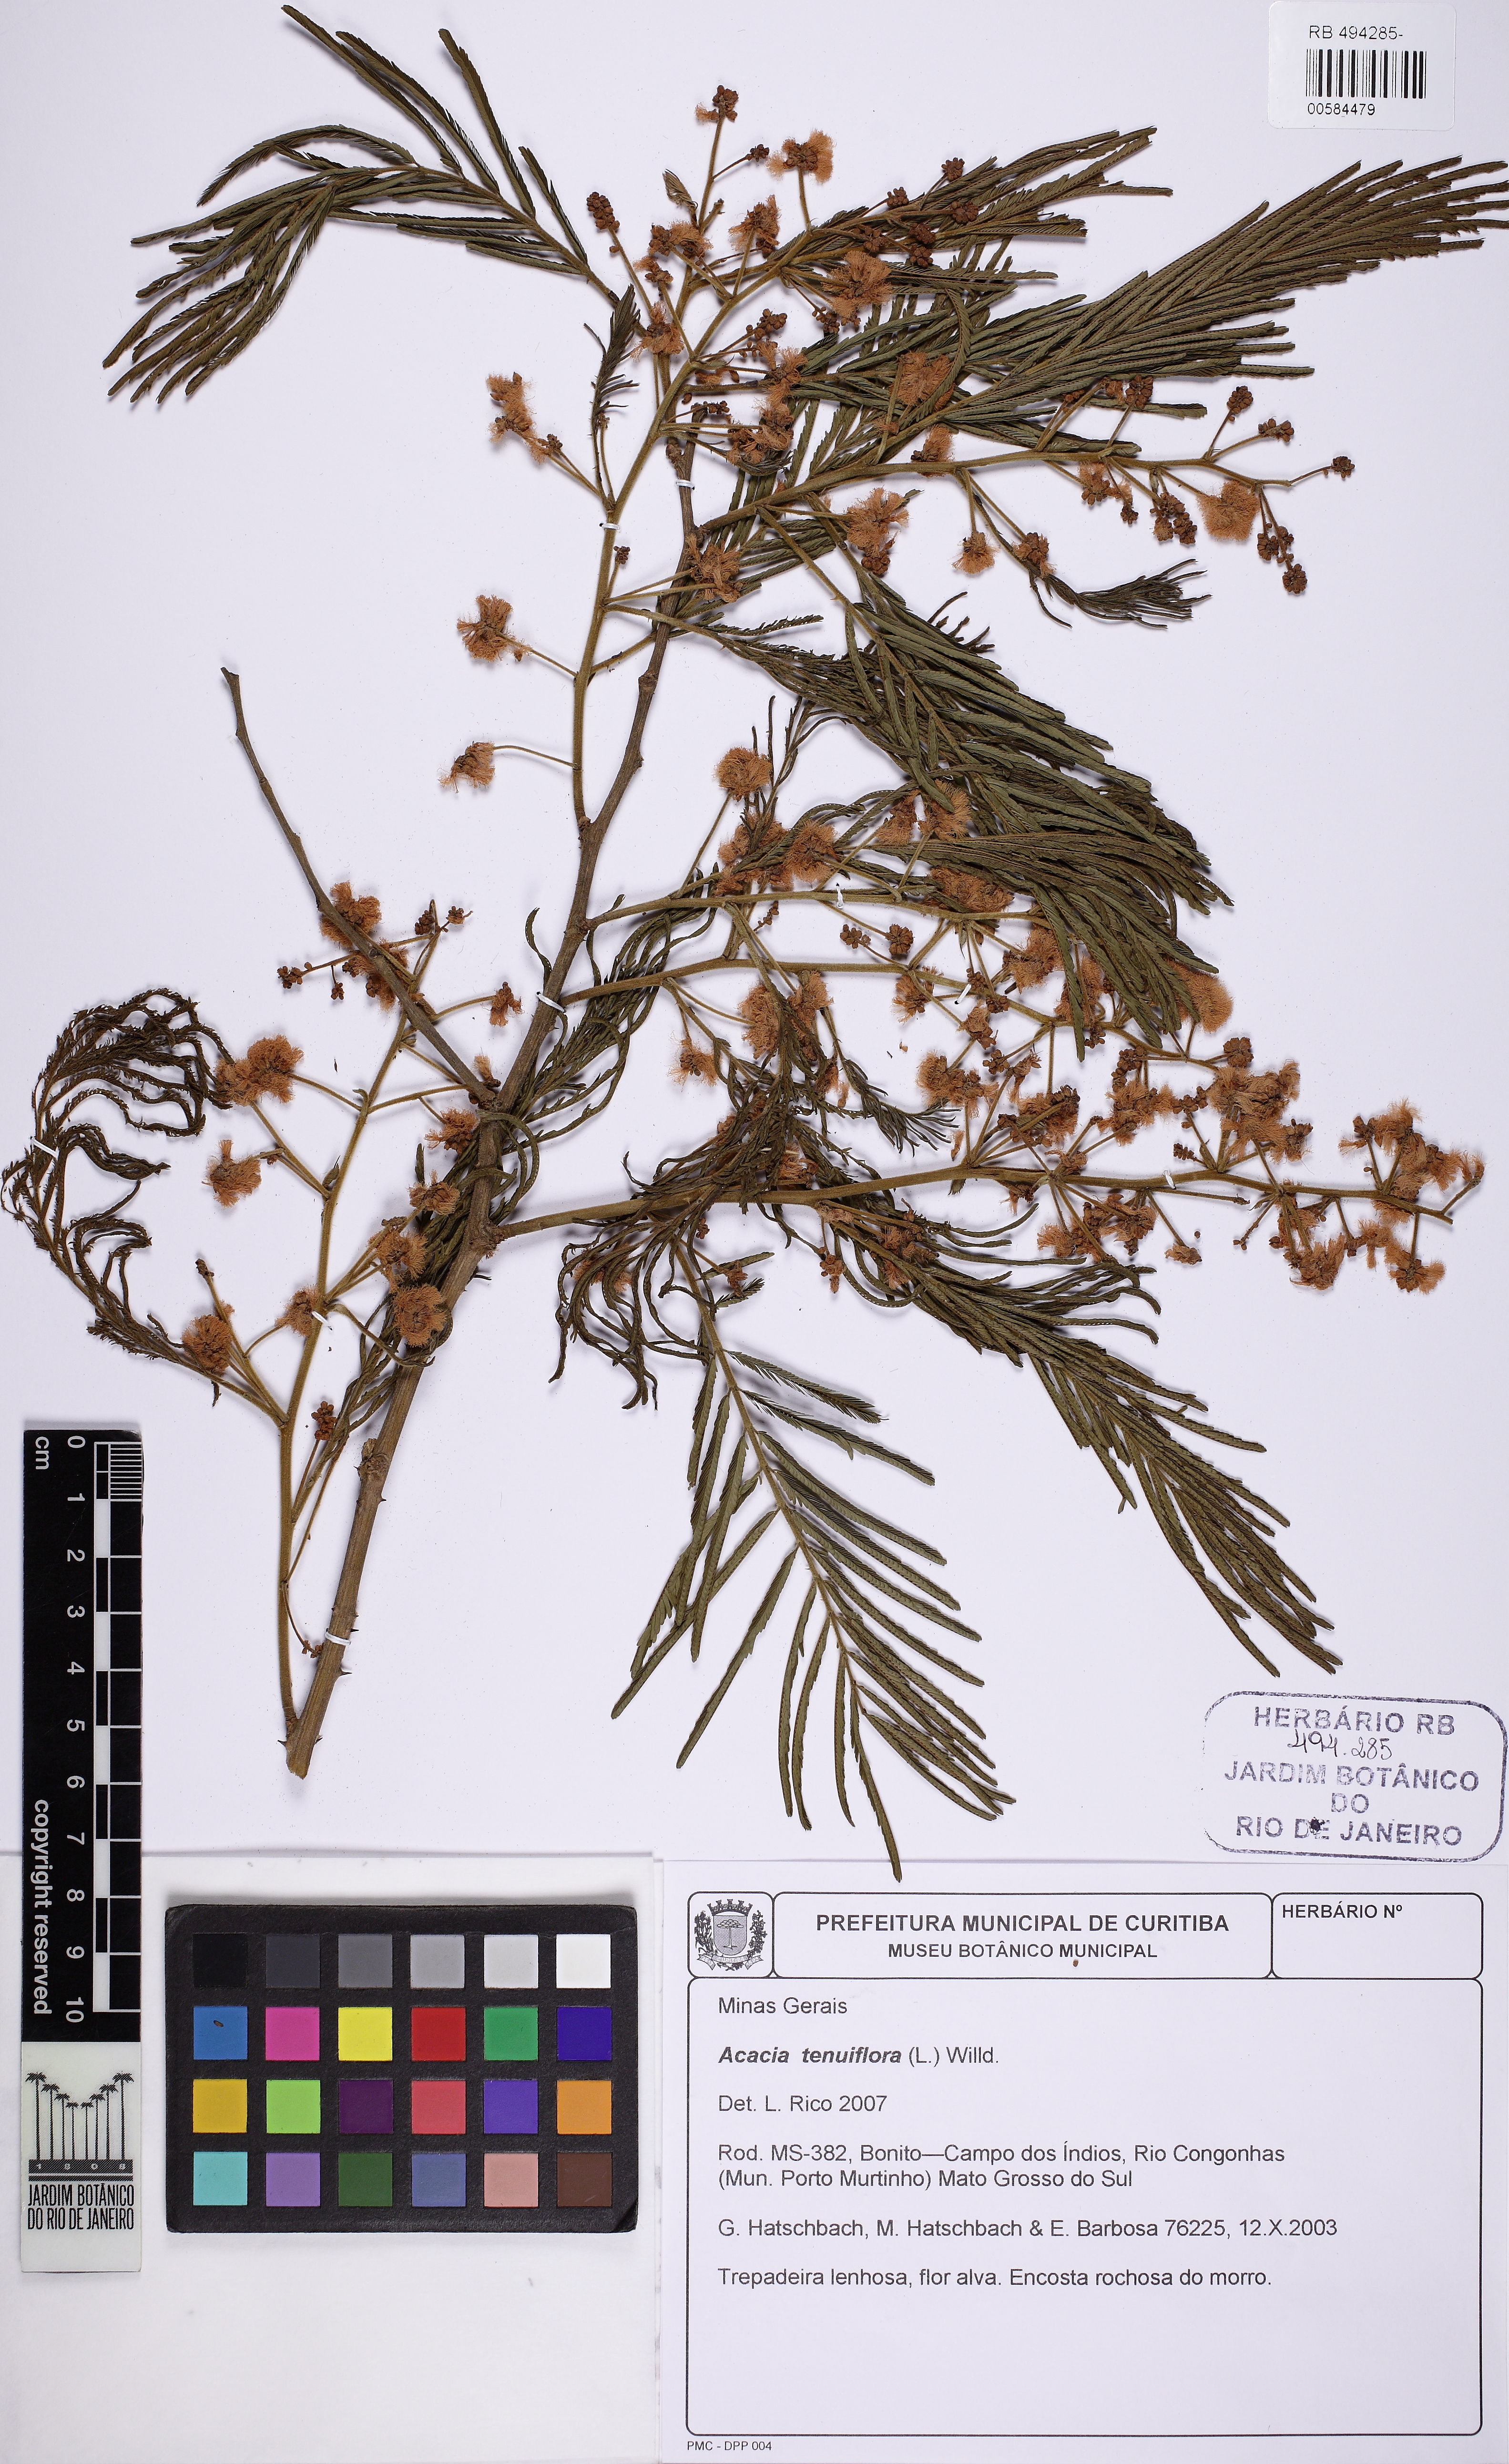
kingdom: Plantae
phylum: Tracheophyta
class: Magnoliopsida
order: Fabales
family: Fabaceae
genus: Mimosa
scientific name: Mimosa tenuiflora
